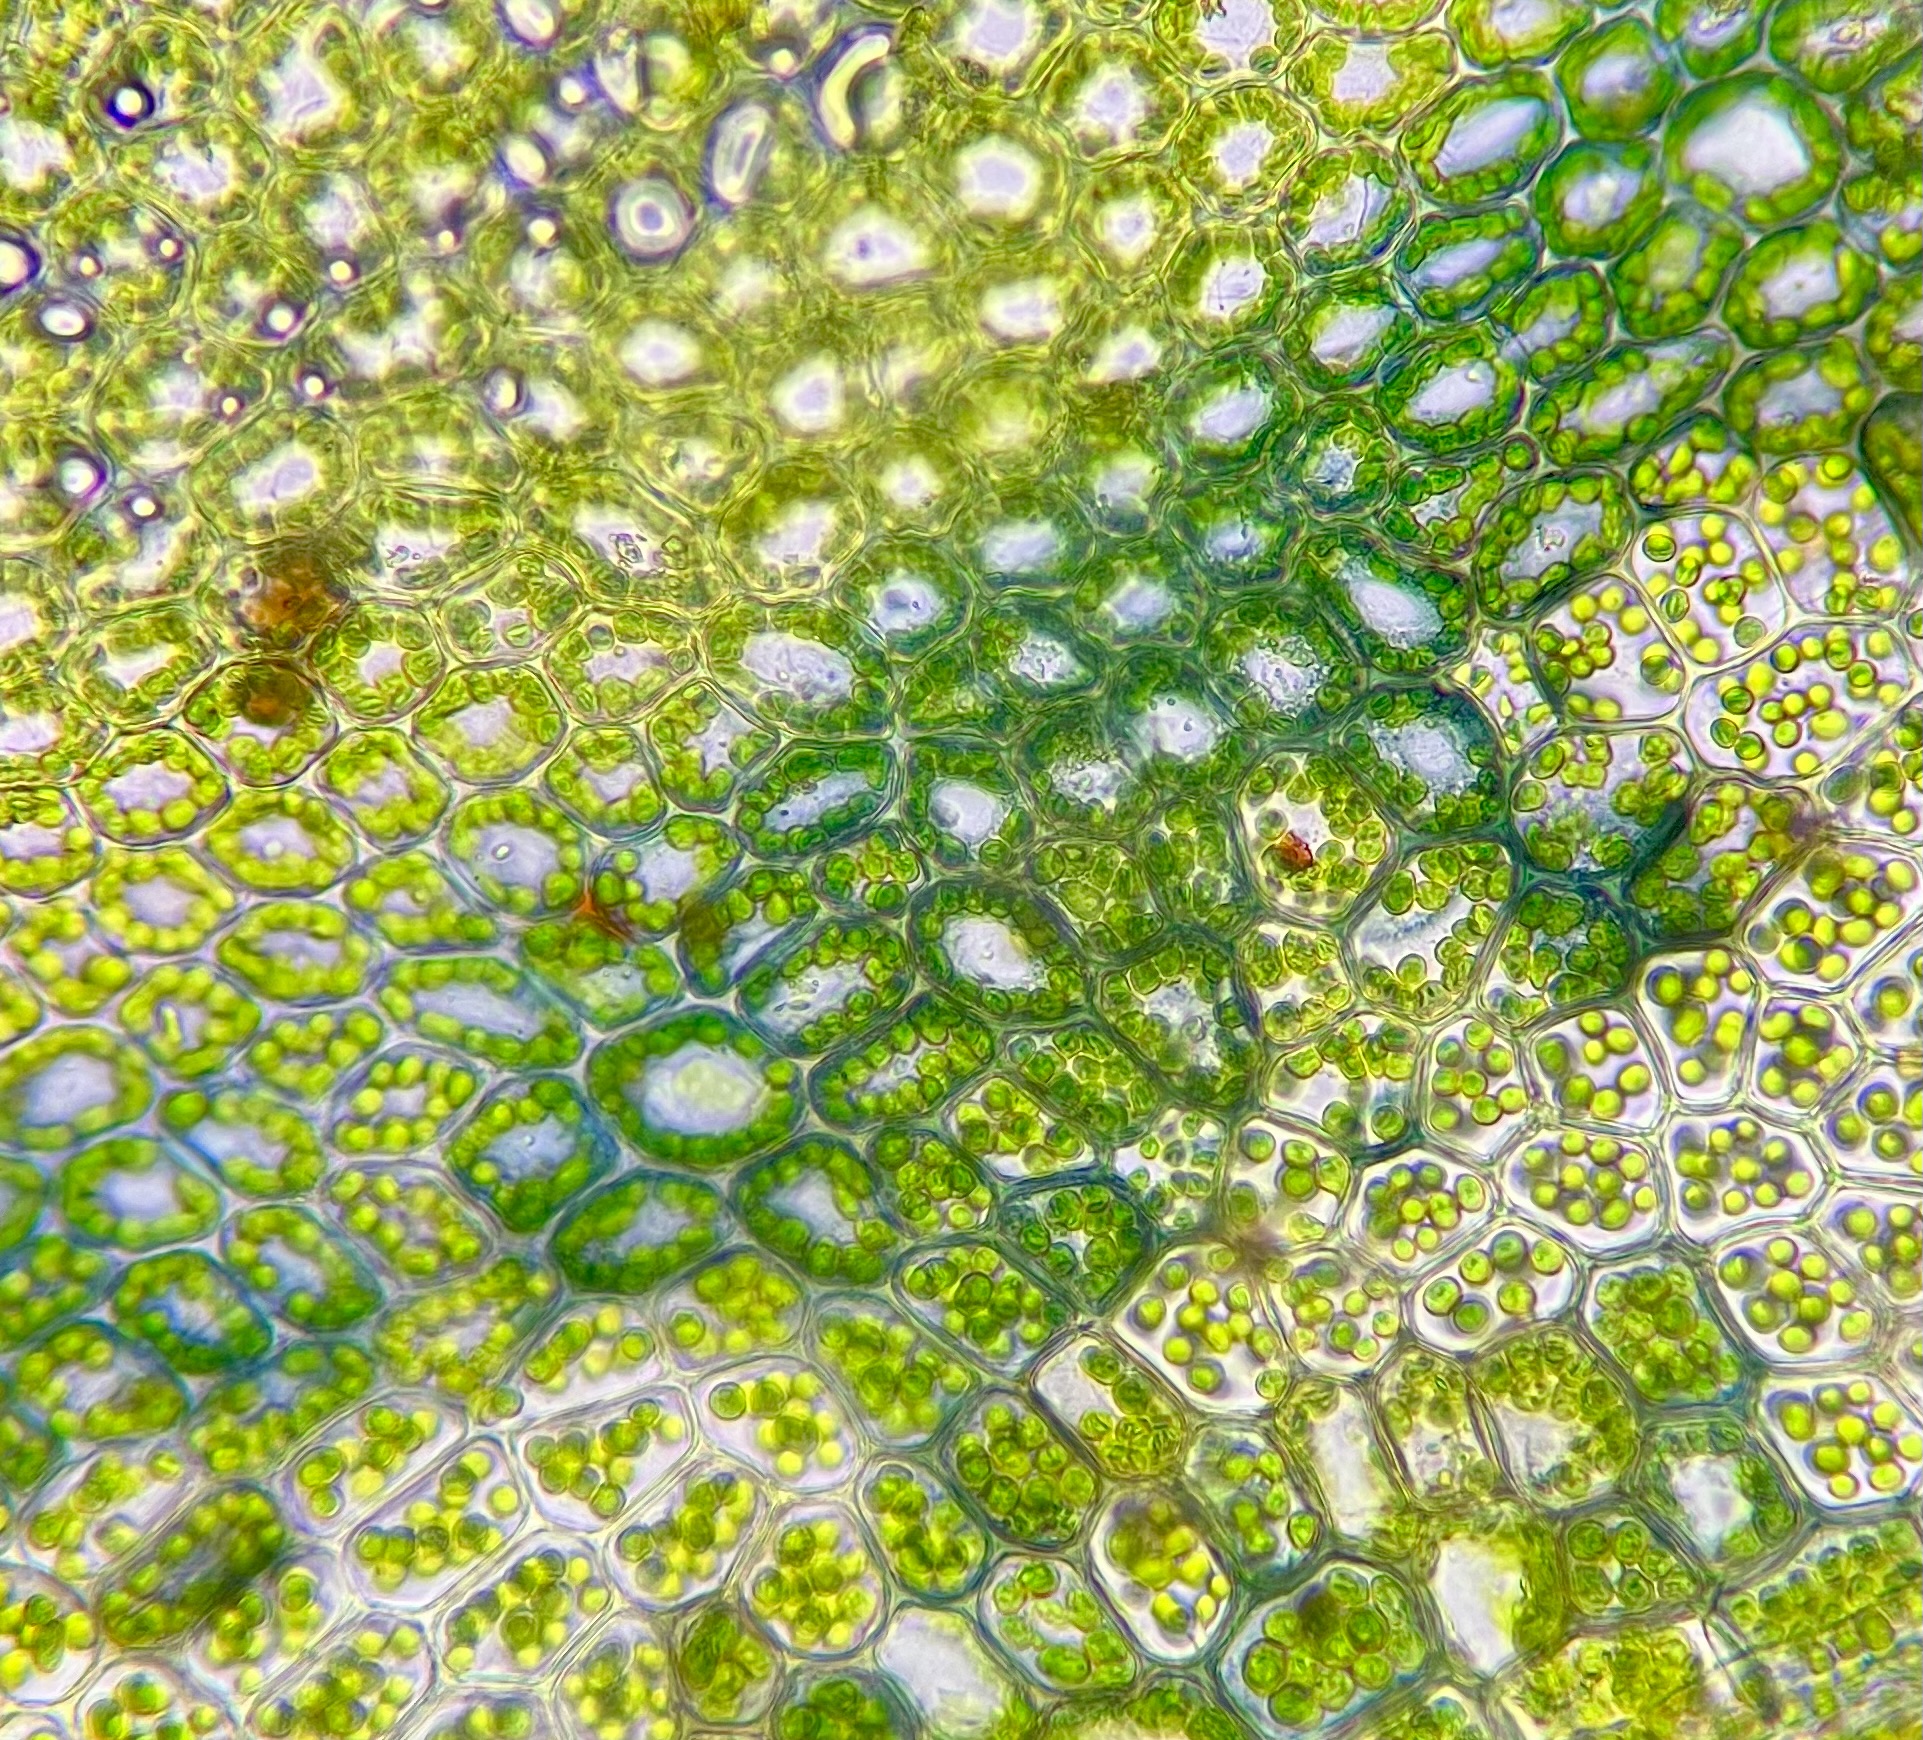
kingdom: Plantae
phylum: Bryophyta
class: Bryopsida
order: Bryales
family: Mniaceae
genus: Mnium
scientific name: Mnium stellare
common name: Indigo stjernemos
